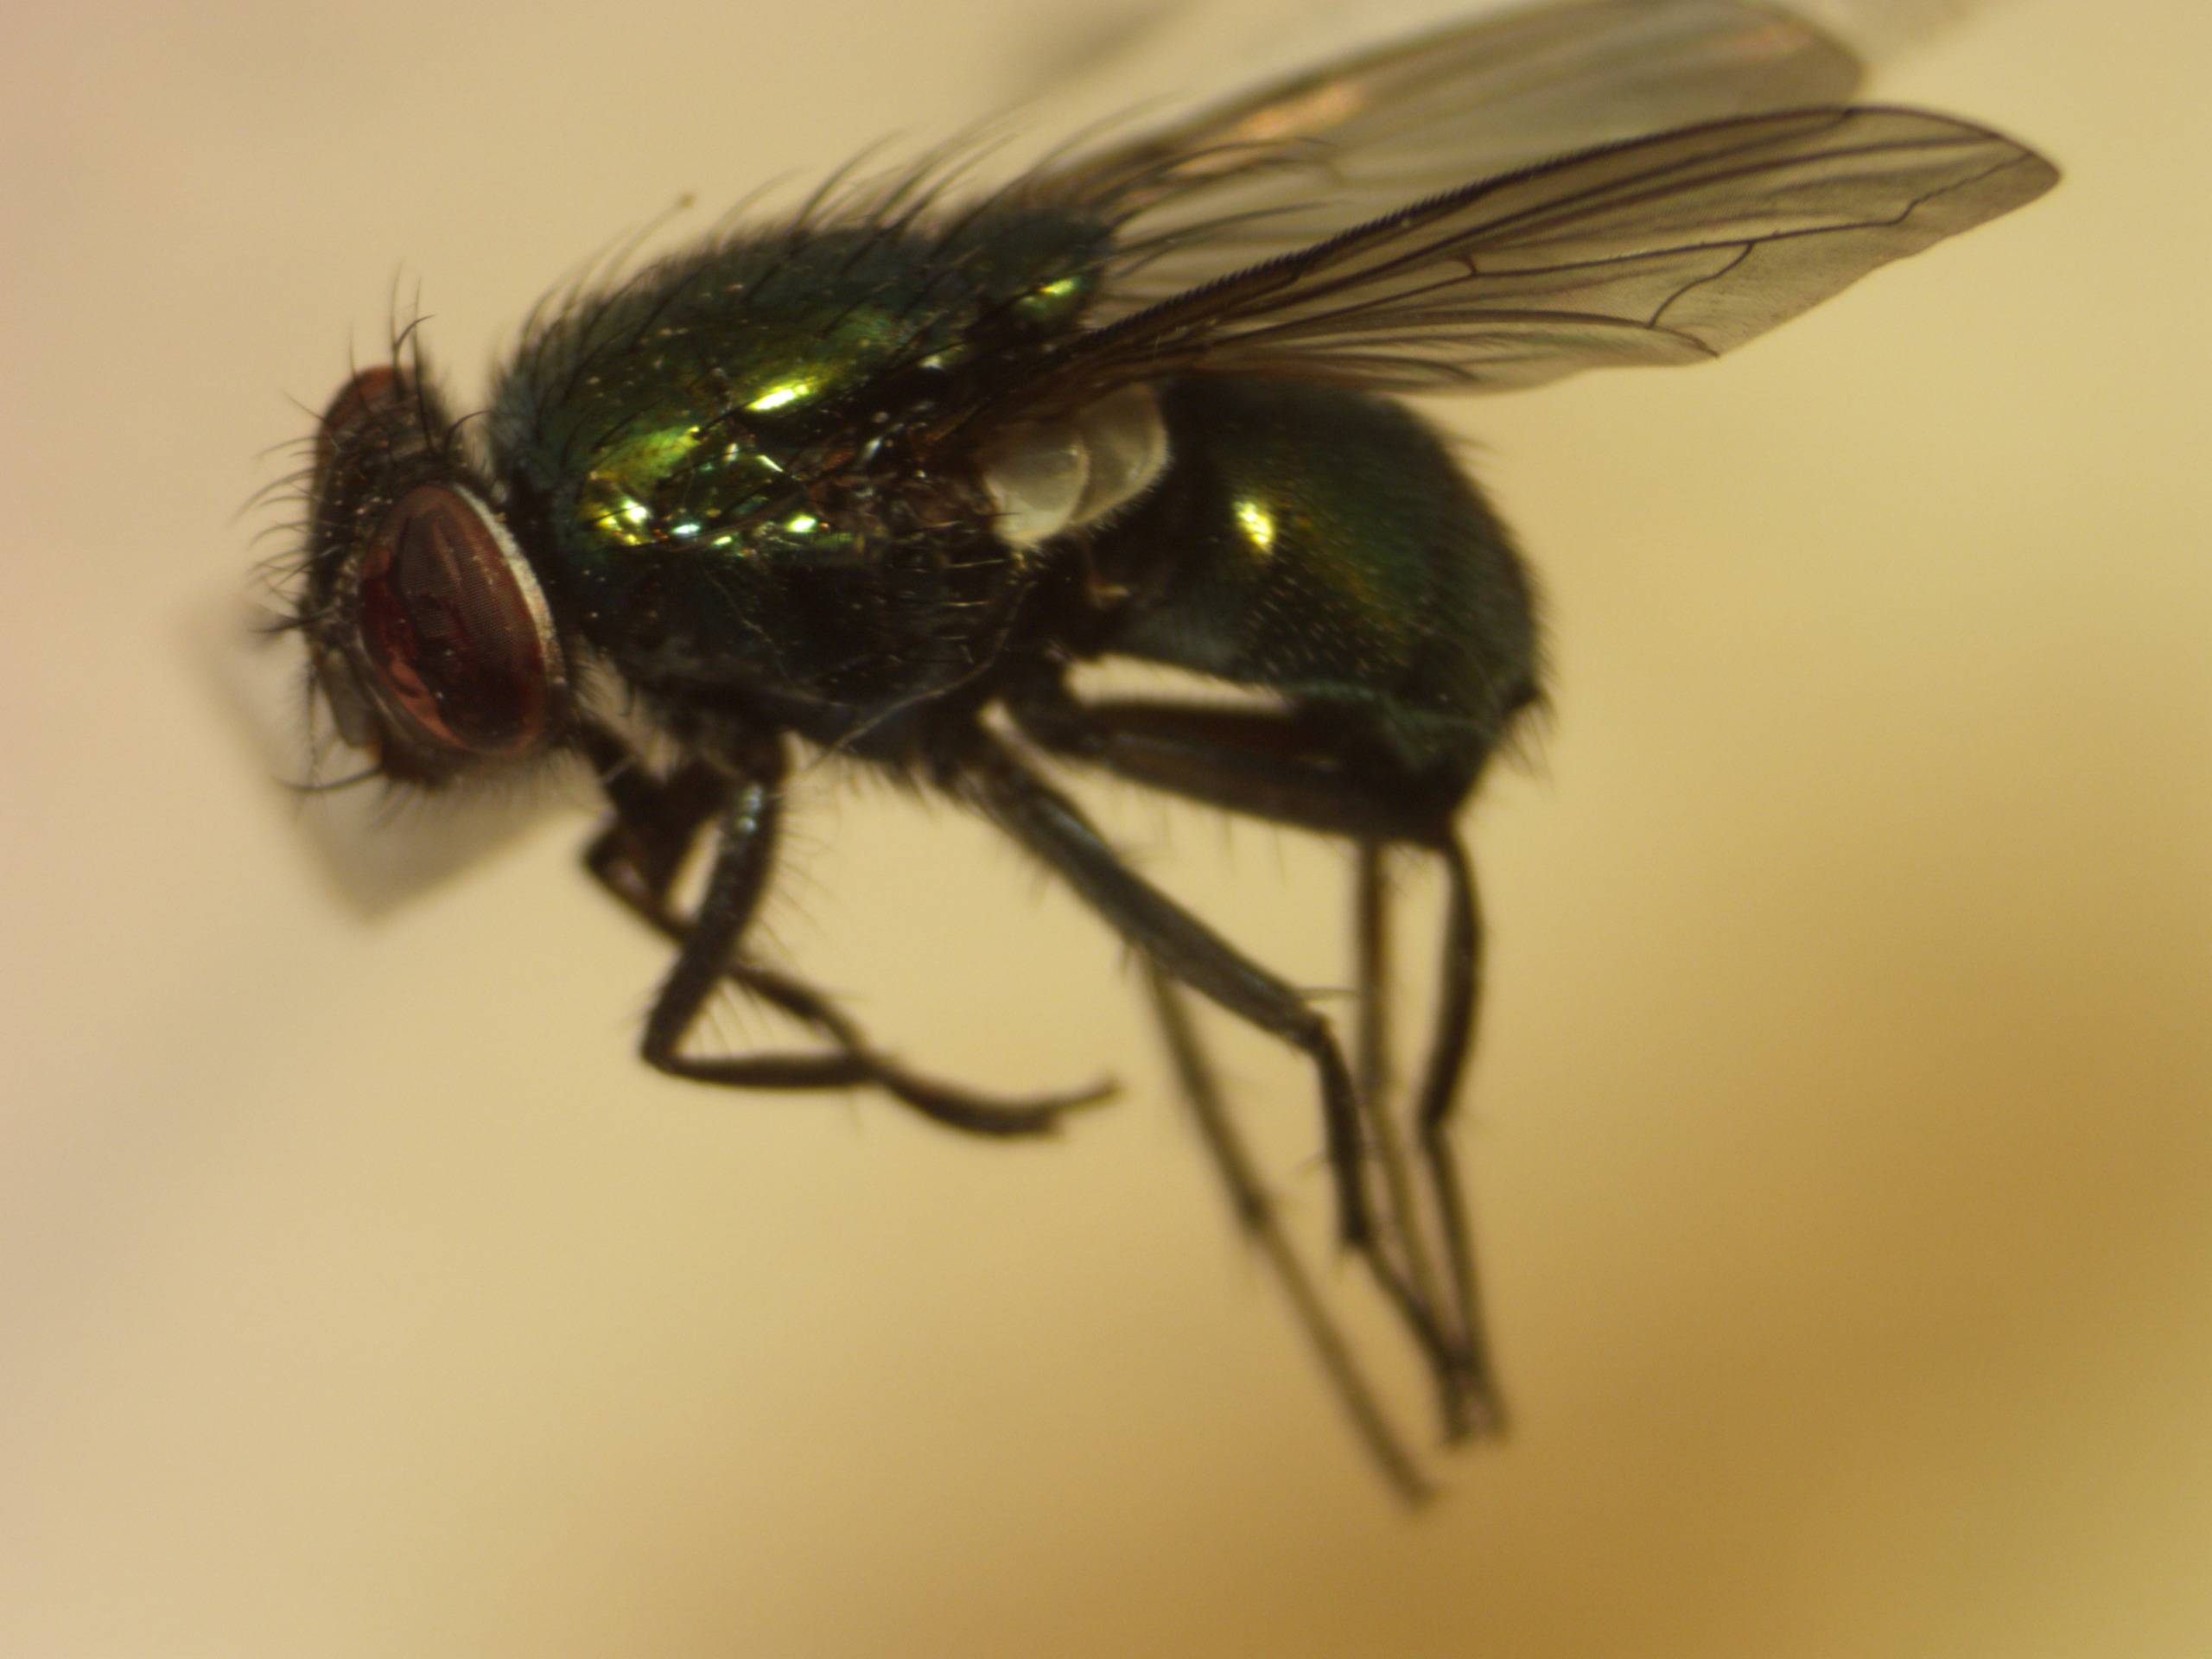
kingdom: Animalia
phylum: Arthropoda
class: Insecta
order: Diptera
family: Calliphoridae
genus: Lucilia
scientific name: Lucilia caesar
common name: Almindelig guldflue
